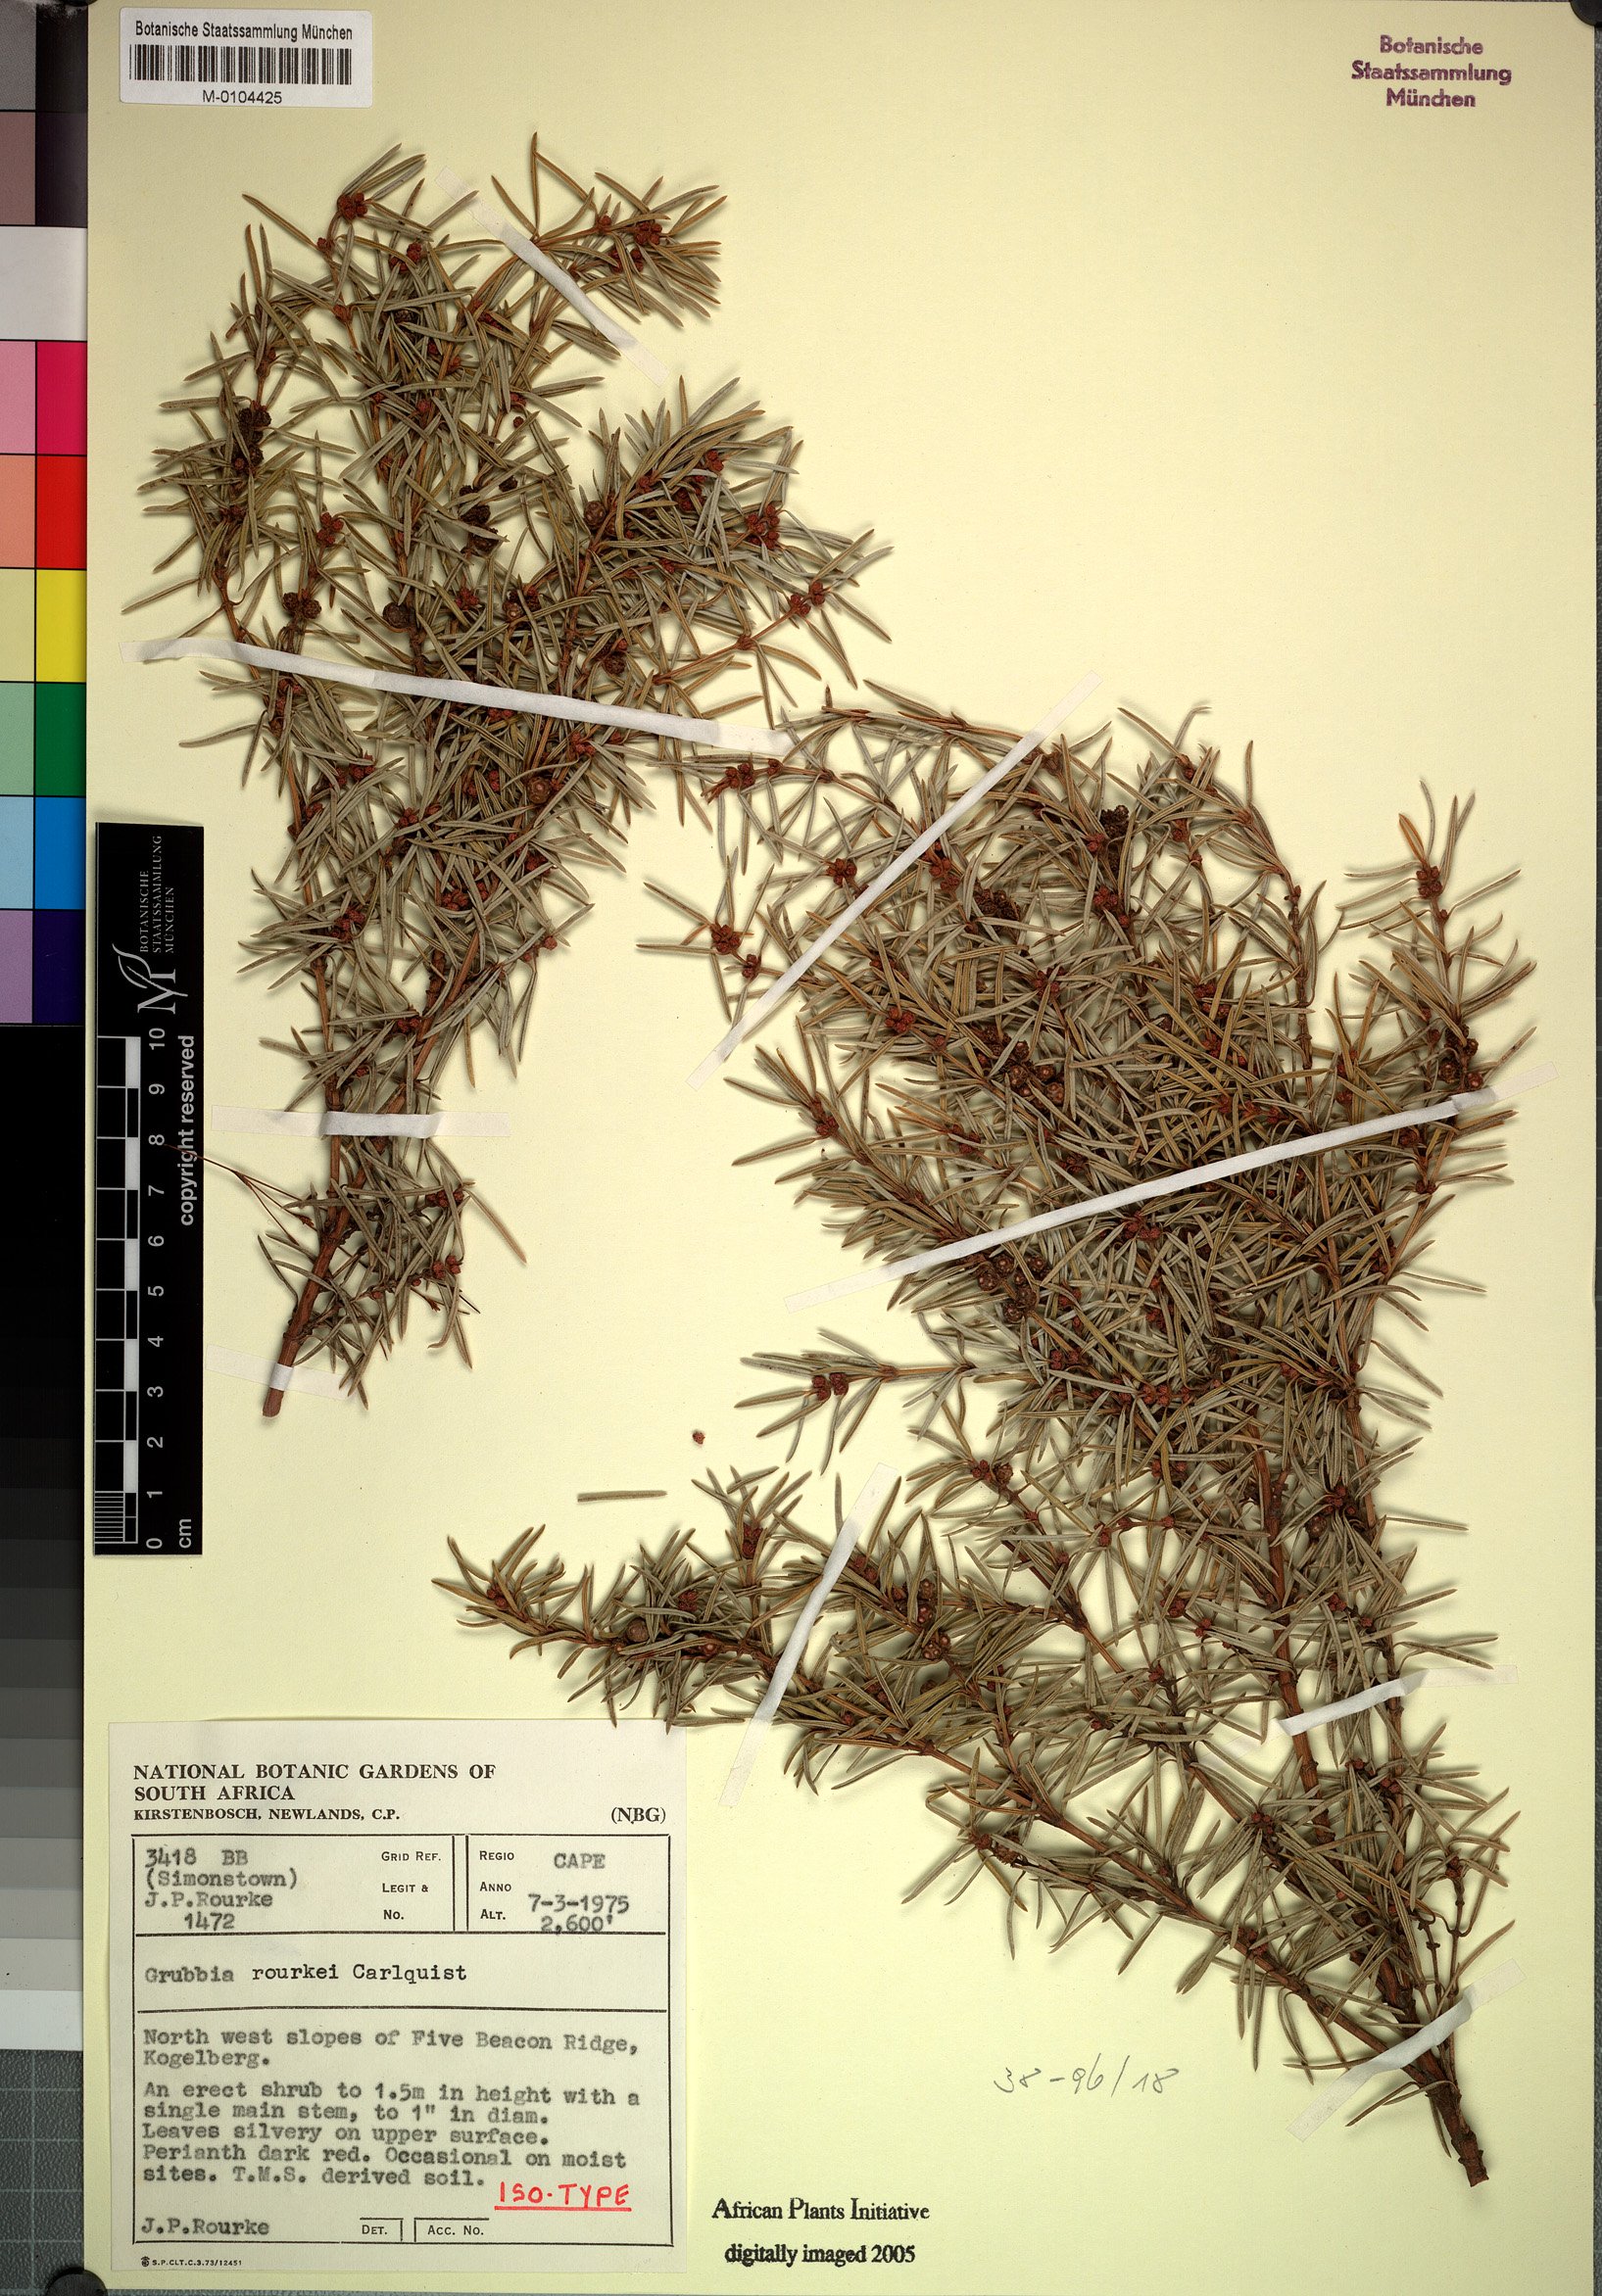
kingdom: Plantae
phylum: Tracheophyta
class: Magnoliopsida
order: Cornales
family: Grubbiaceae
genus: Grubbia
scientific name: Grubbia rourkei
